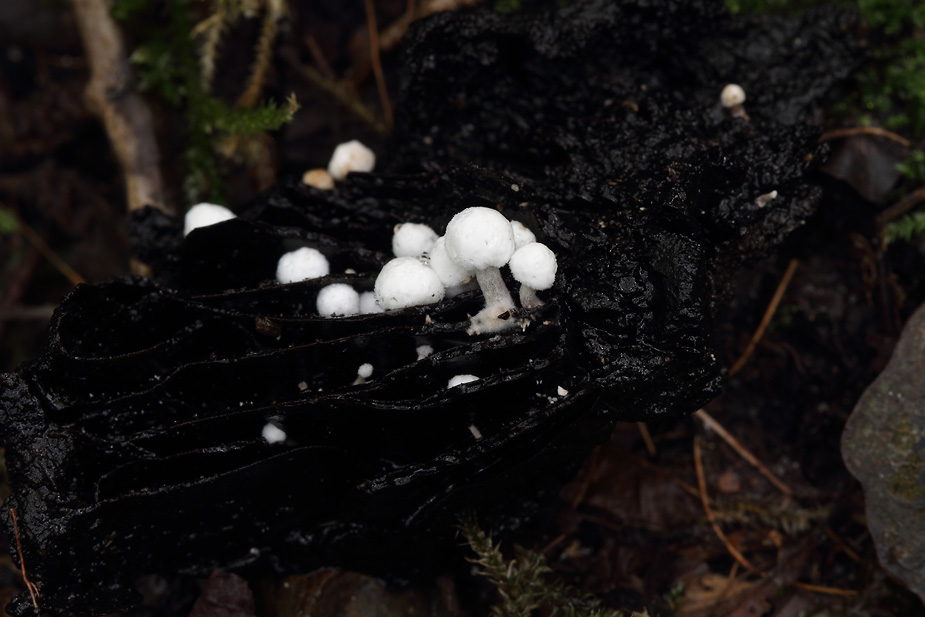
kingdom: Fungi
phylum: Basidiomycota
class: Agaricomycetes
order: Agaricales
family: Lyophyllaceae
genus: Asterophora
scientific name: Asterophora parasitica
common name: grå snyltehat
